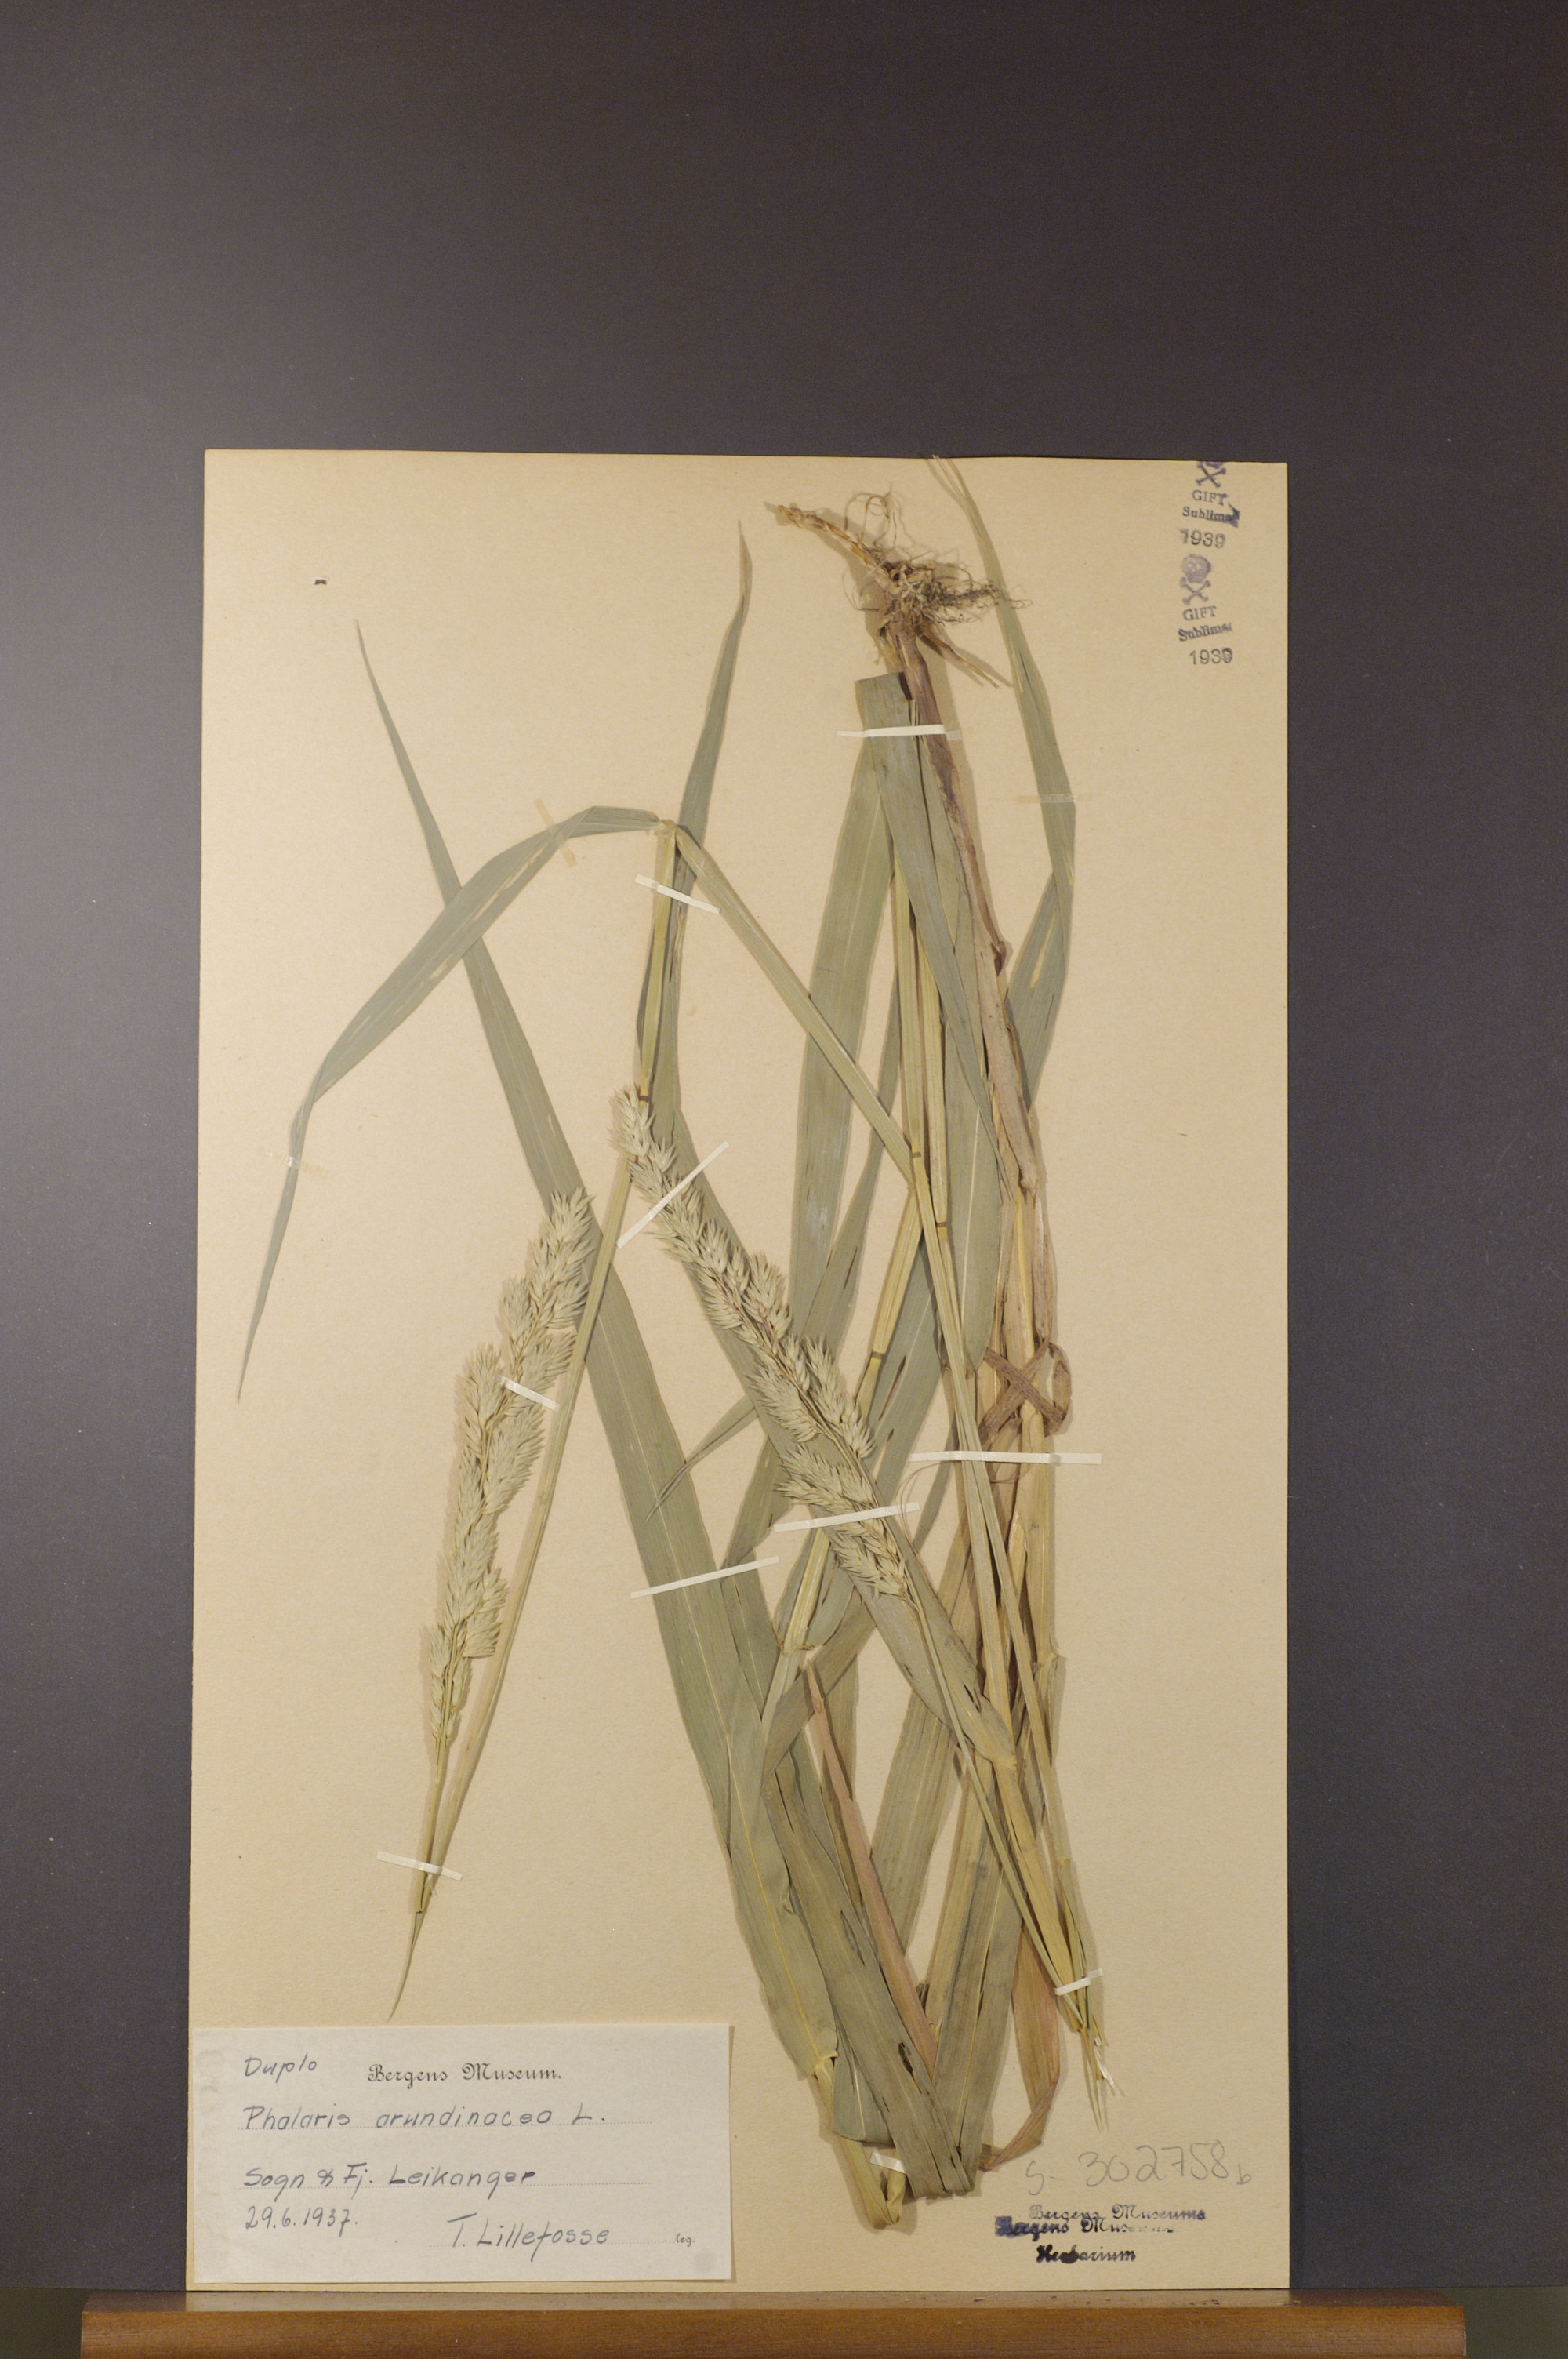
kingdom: Plantae
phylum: Tracheophyta
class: Liliopsida
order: Poales
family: Poaceae
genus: Phalaris
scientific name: Phalaris arundinacea
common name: Reed canary-grass
